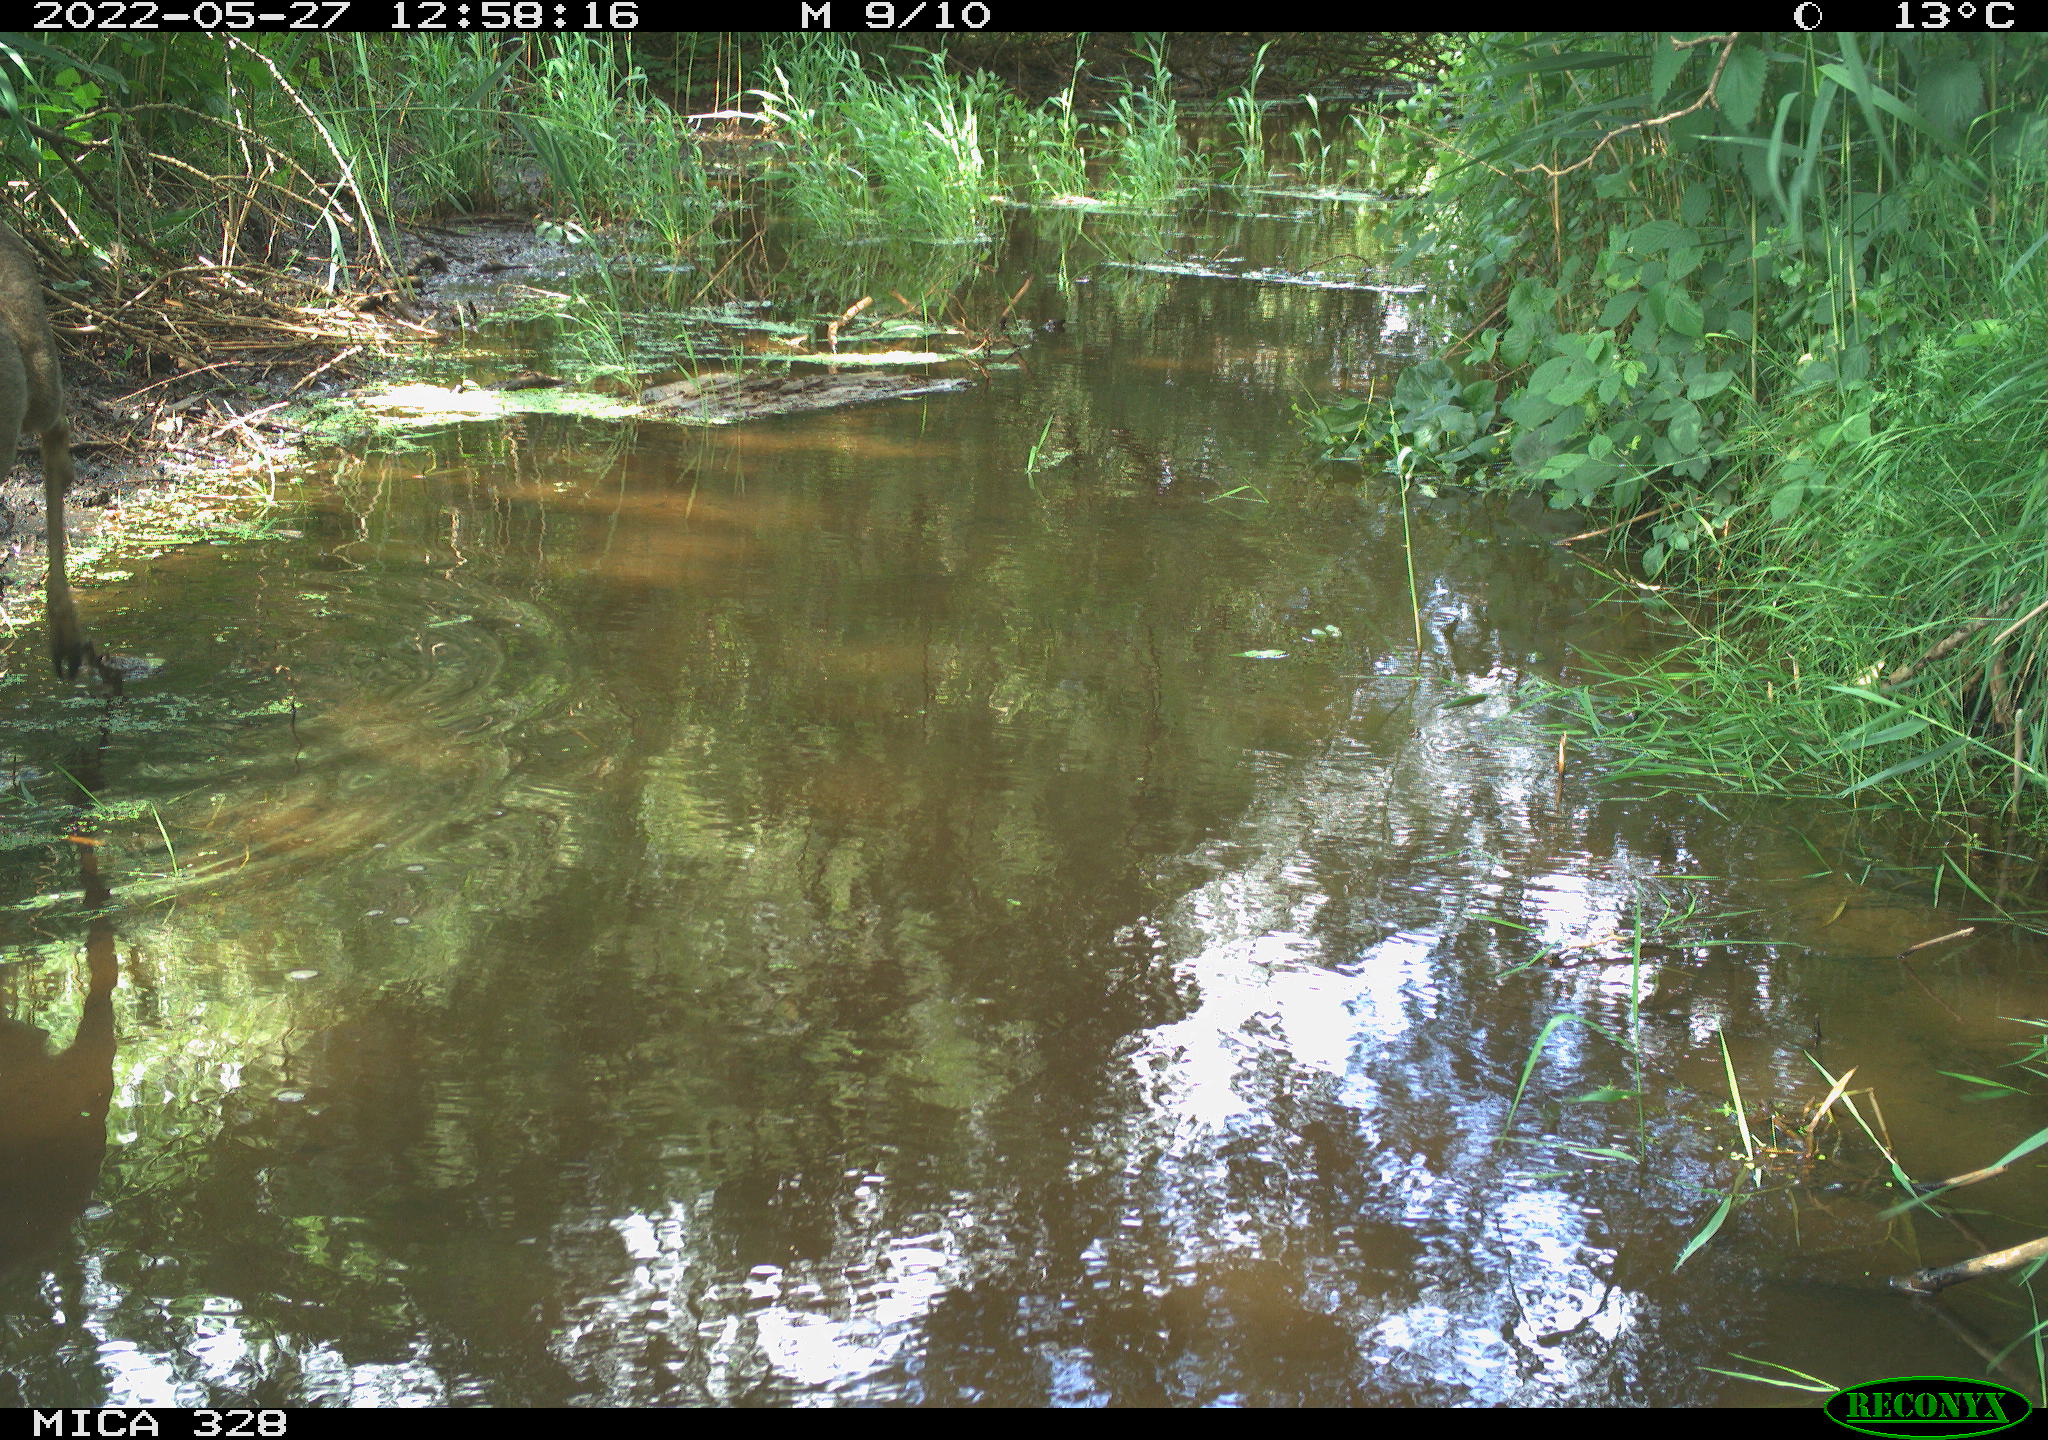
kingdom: Animalia
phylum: Chordata
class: Mammalia
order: Artiodactyla
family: Cervidae
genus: Capreolus
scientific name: Capreolus capreolus
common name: Western roe deer
